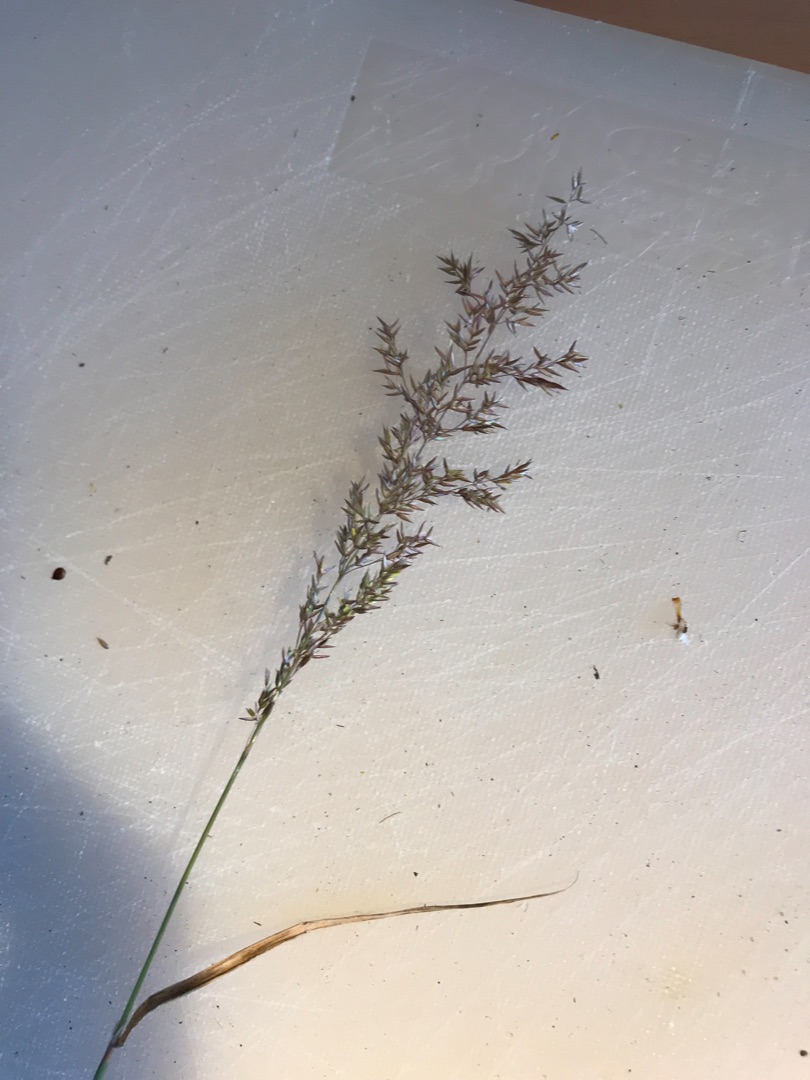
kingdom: Plantae
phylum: Tracheophyta
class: Liliopsida
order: Poales
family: Poaceae
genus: Agrostis
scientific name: Agrostis stolonifera
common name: Kryb-hvene
